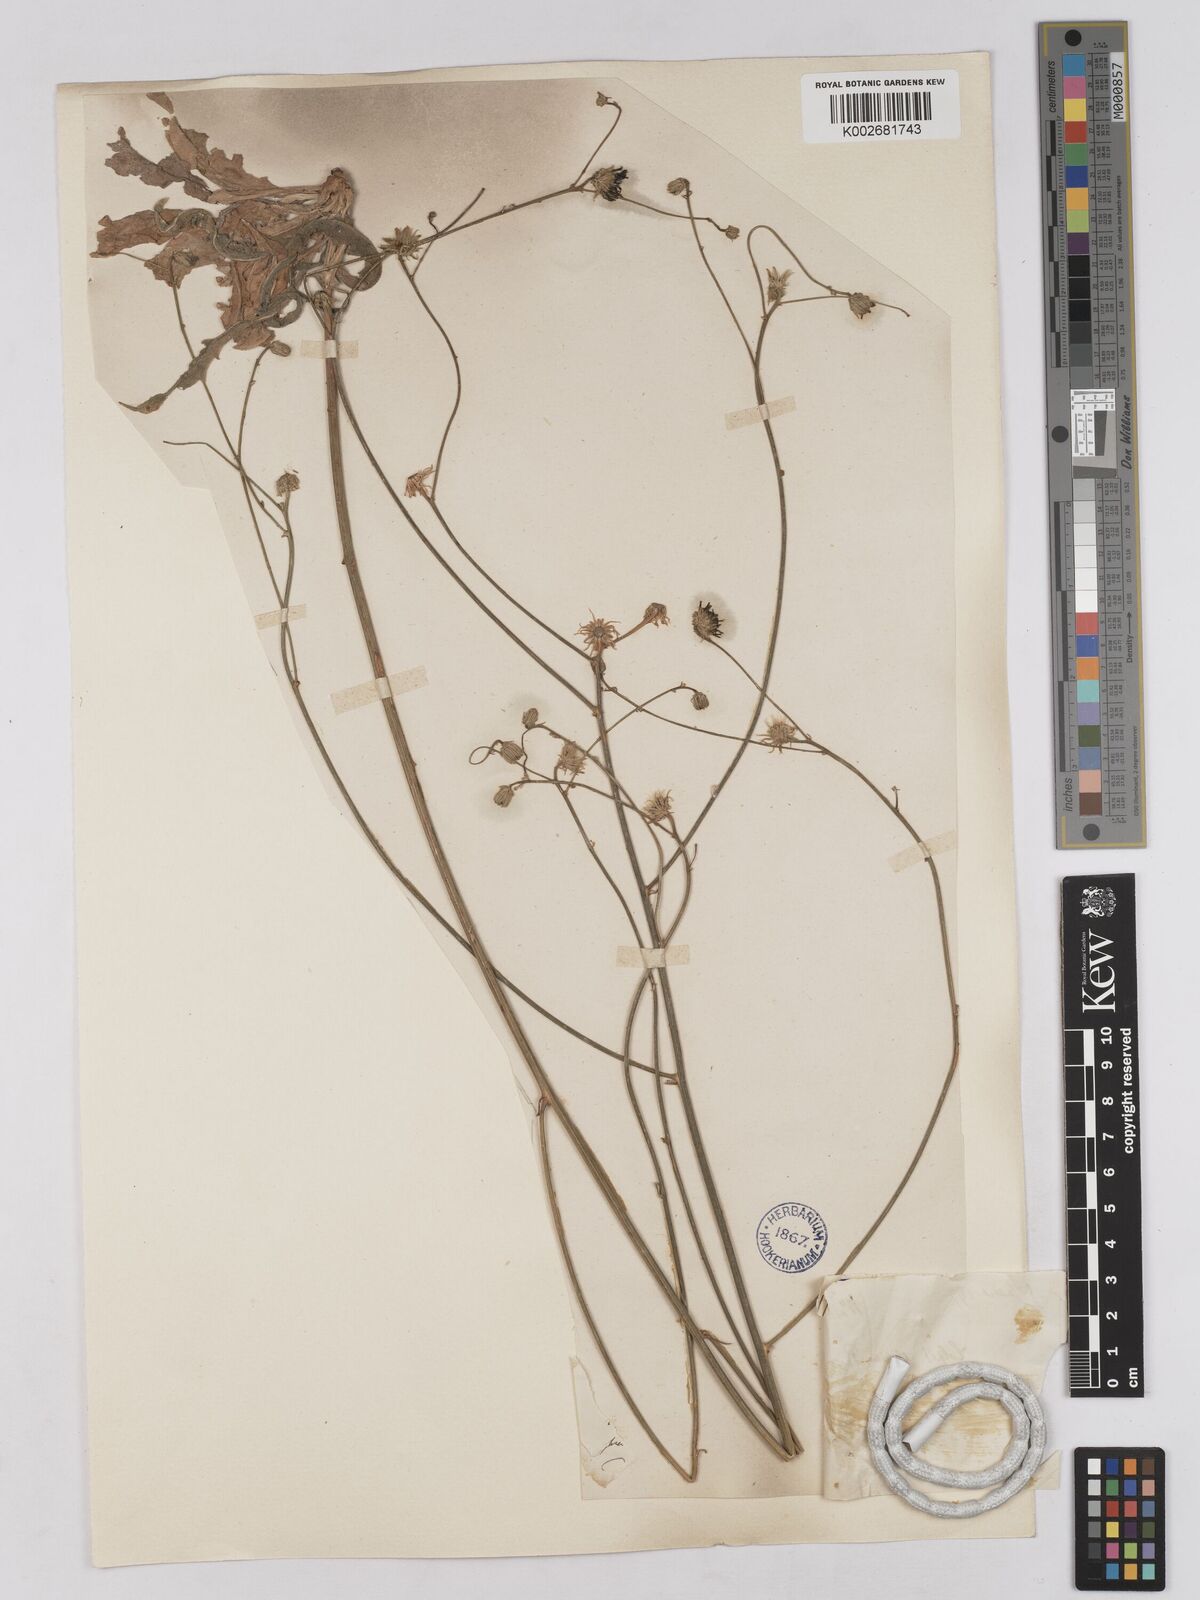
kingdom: Plantae
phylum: Tracheophyta
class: Magnoliopsida
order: Asterales
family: Asteraceae
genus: Tolpis
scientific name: Tolpis virgata
